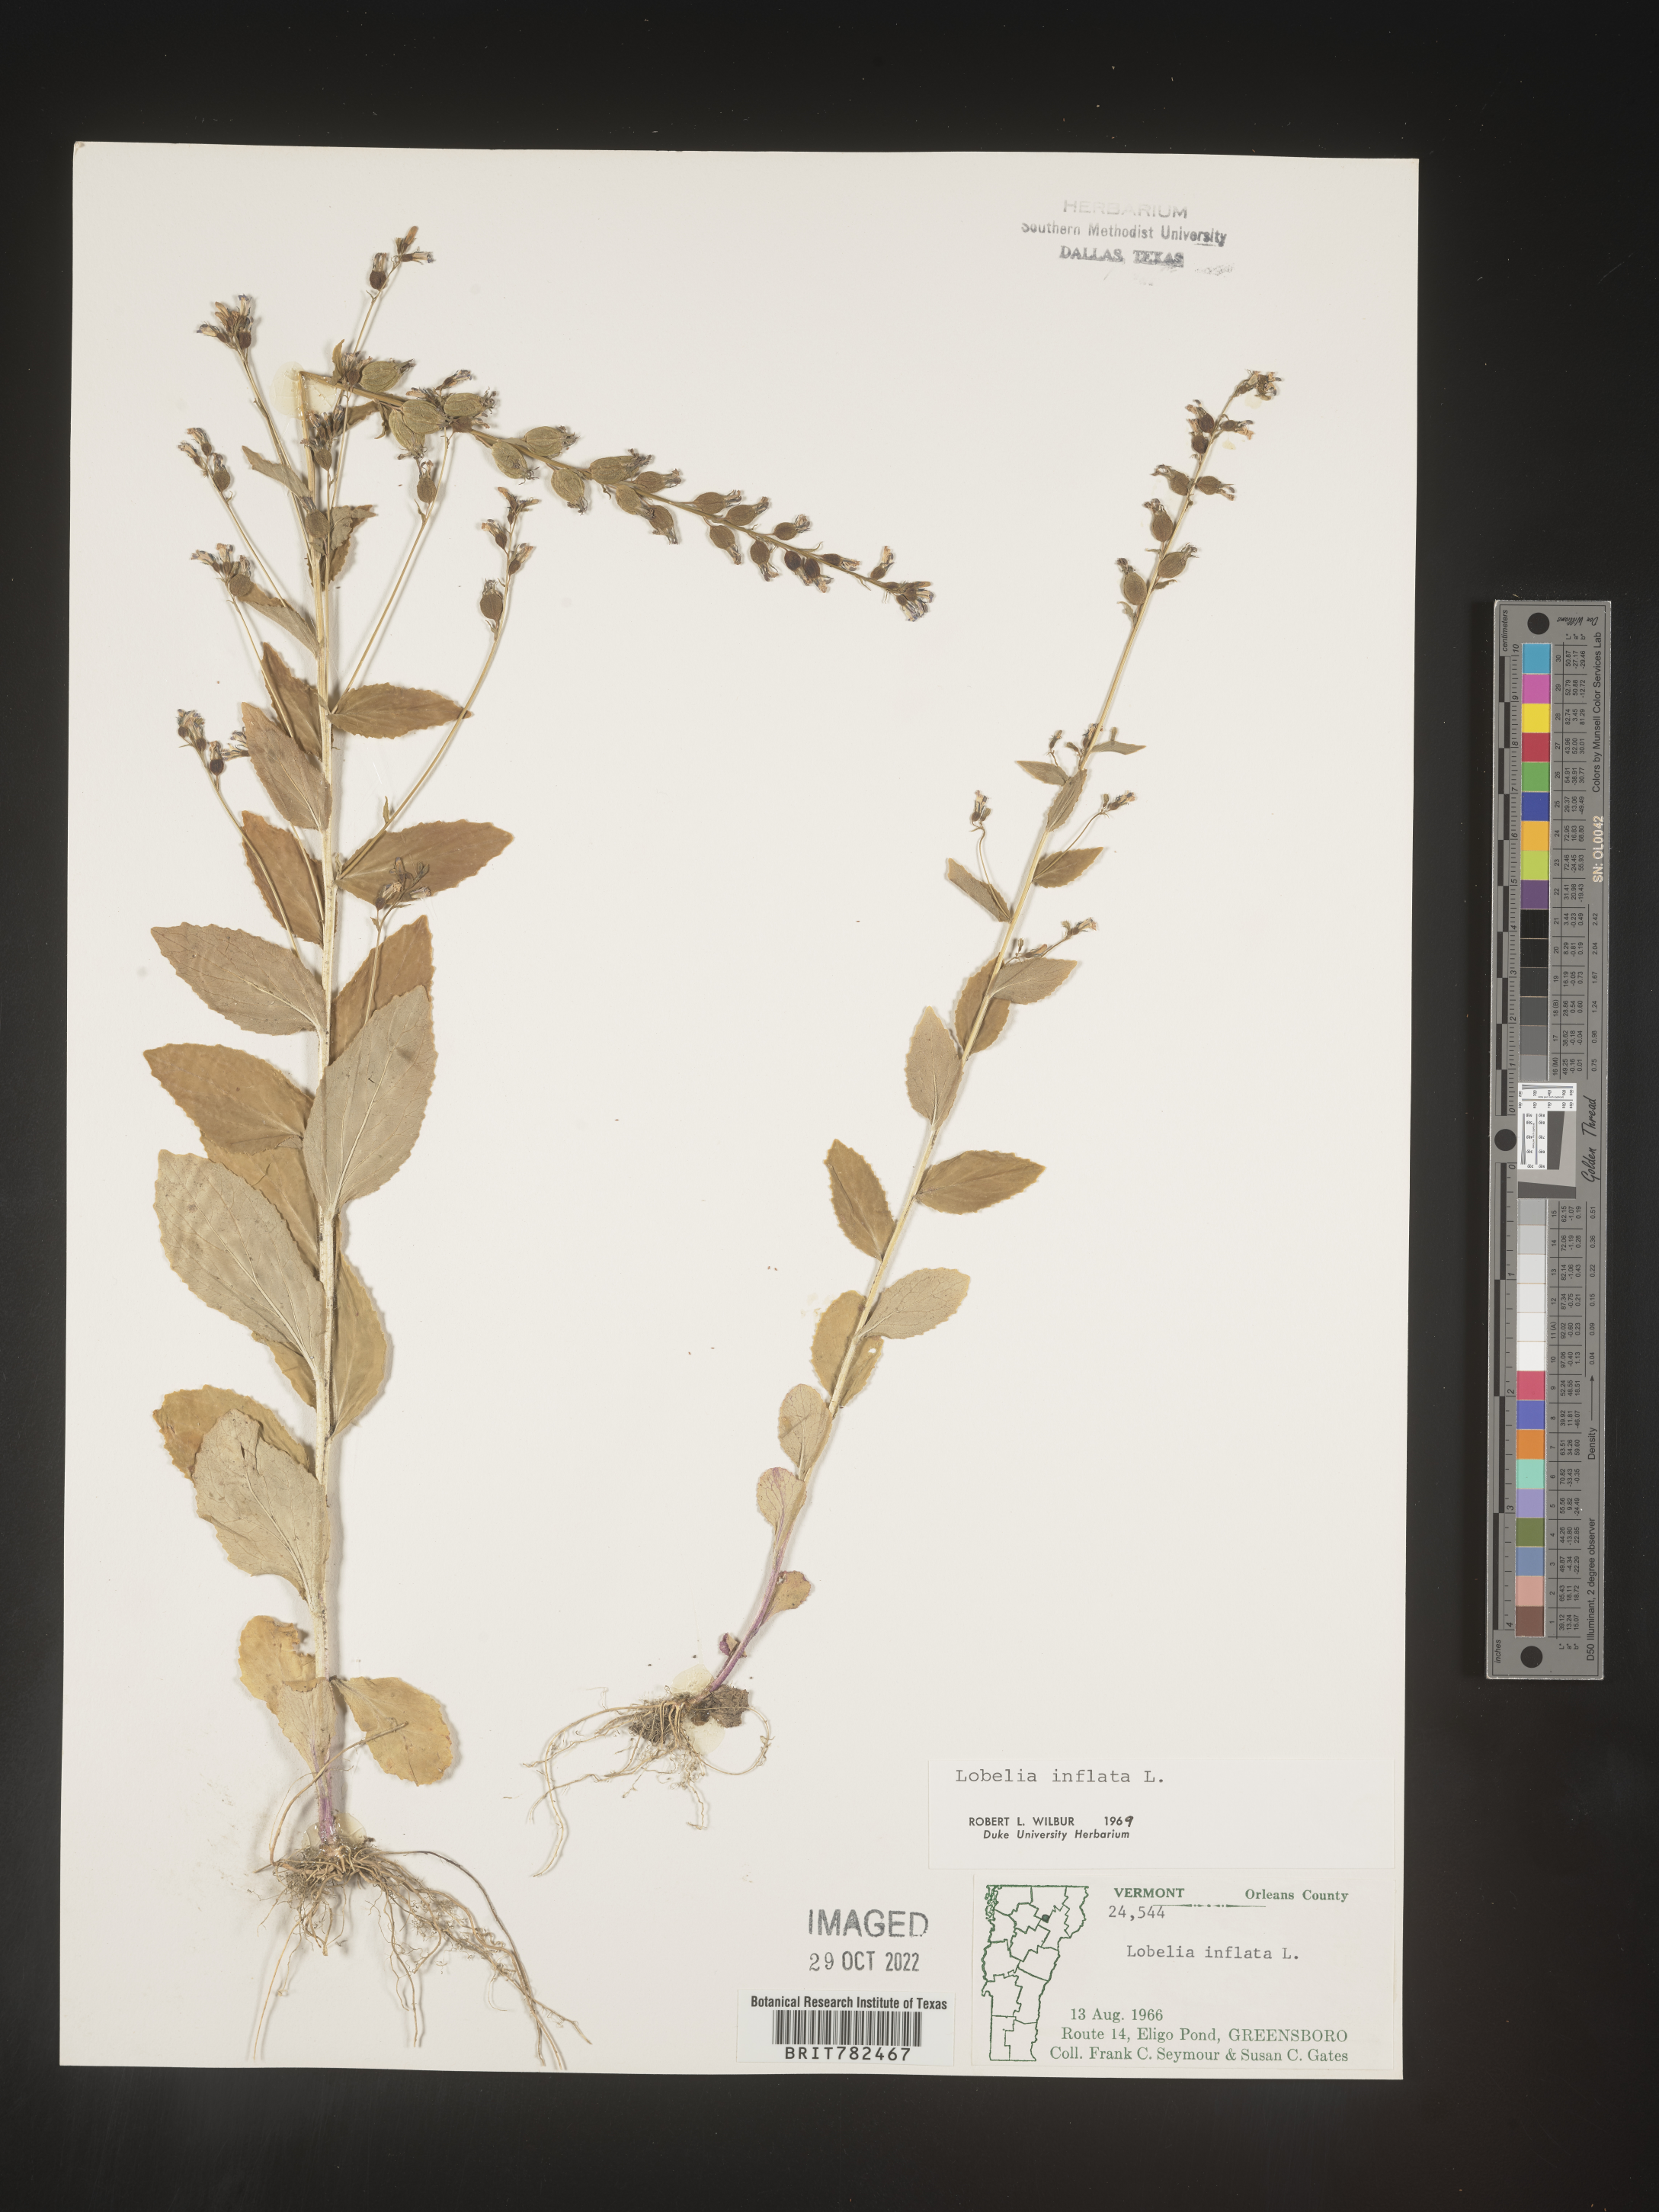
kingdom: Plantae
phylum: Tracheophyta
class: Magnoliopsida
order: Asterales
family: Campanulaceae
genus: Lobelia
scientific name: Lobelia inflata
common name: Indian tobacco
